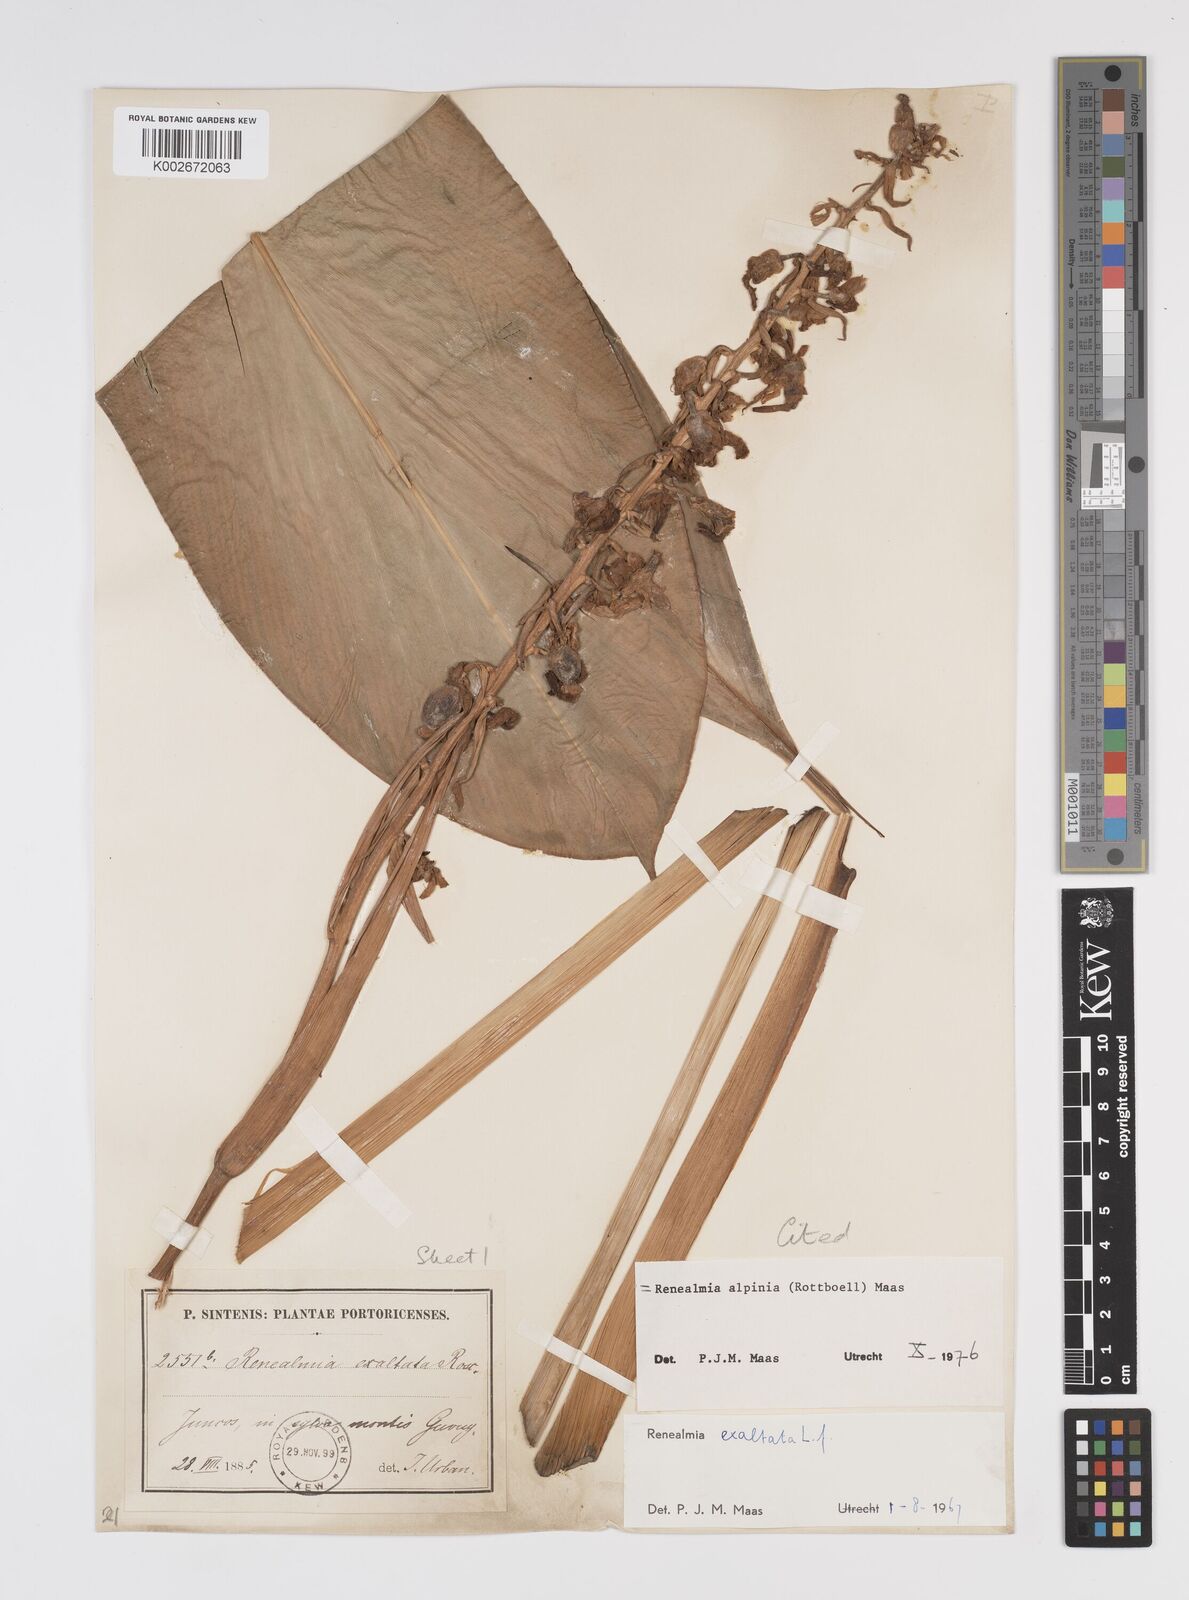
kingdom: Plantae
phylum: Tracheophyta
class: Liliopsida
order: Zingiberales
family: Zingiberaceae
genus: Renealmia
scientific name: Renealmia alpinia
